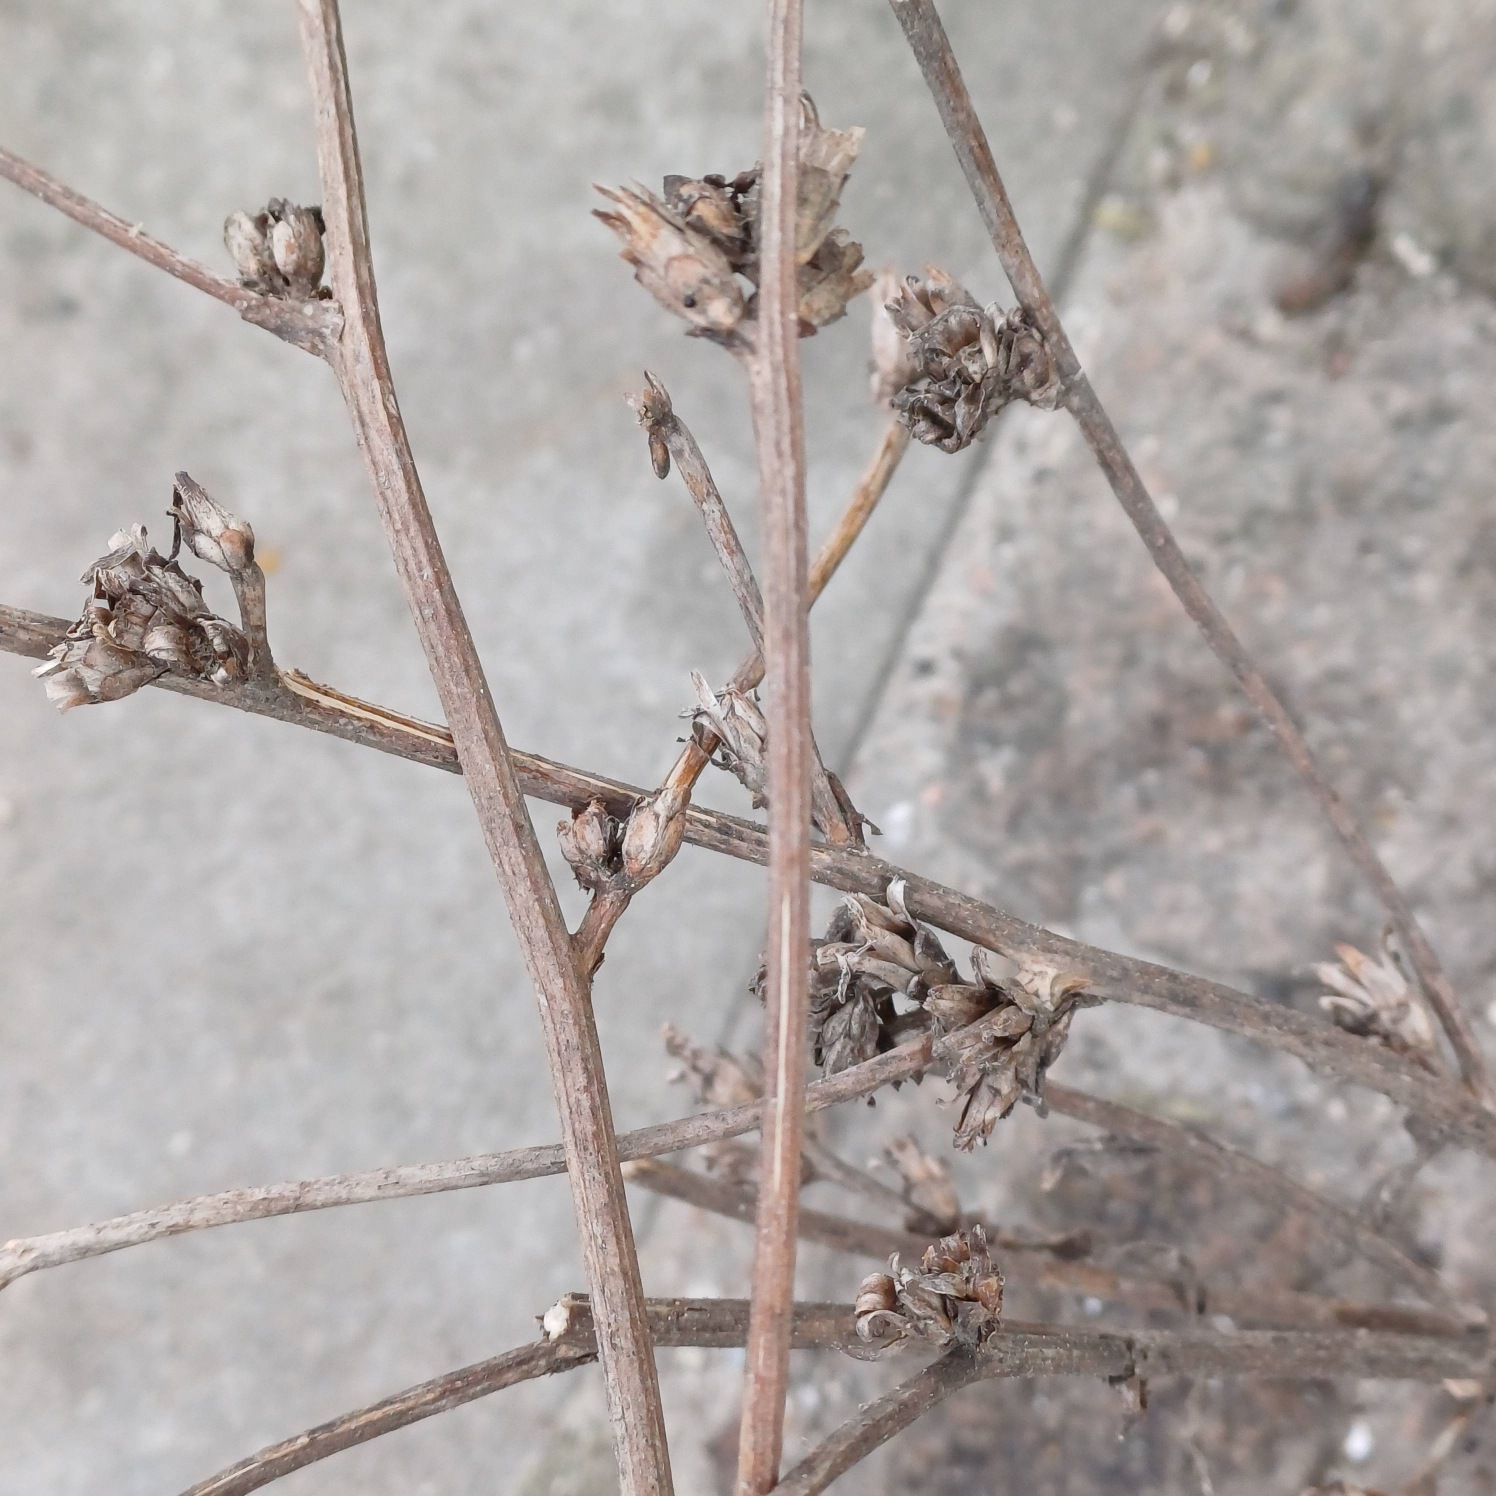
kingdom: Plantae
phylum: Tracheophyta
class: Magnoliopsida
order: Asterales
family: Asteraceae
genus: Cichorium
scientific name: Cichorium intybus
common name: Cikorie
